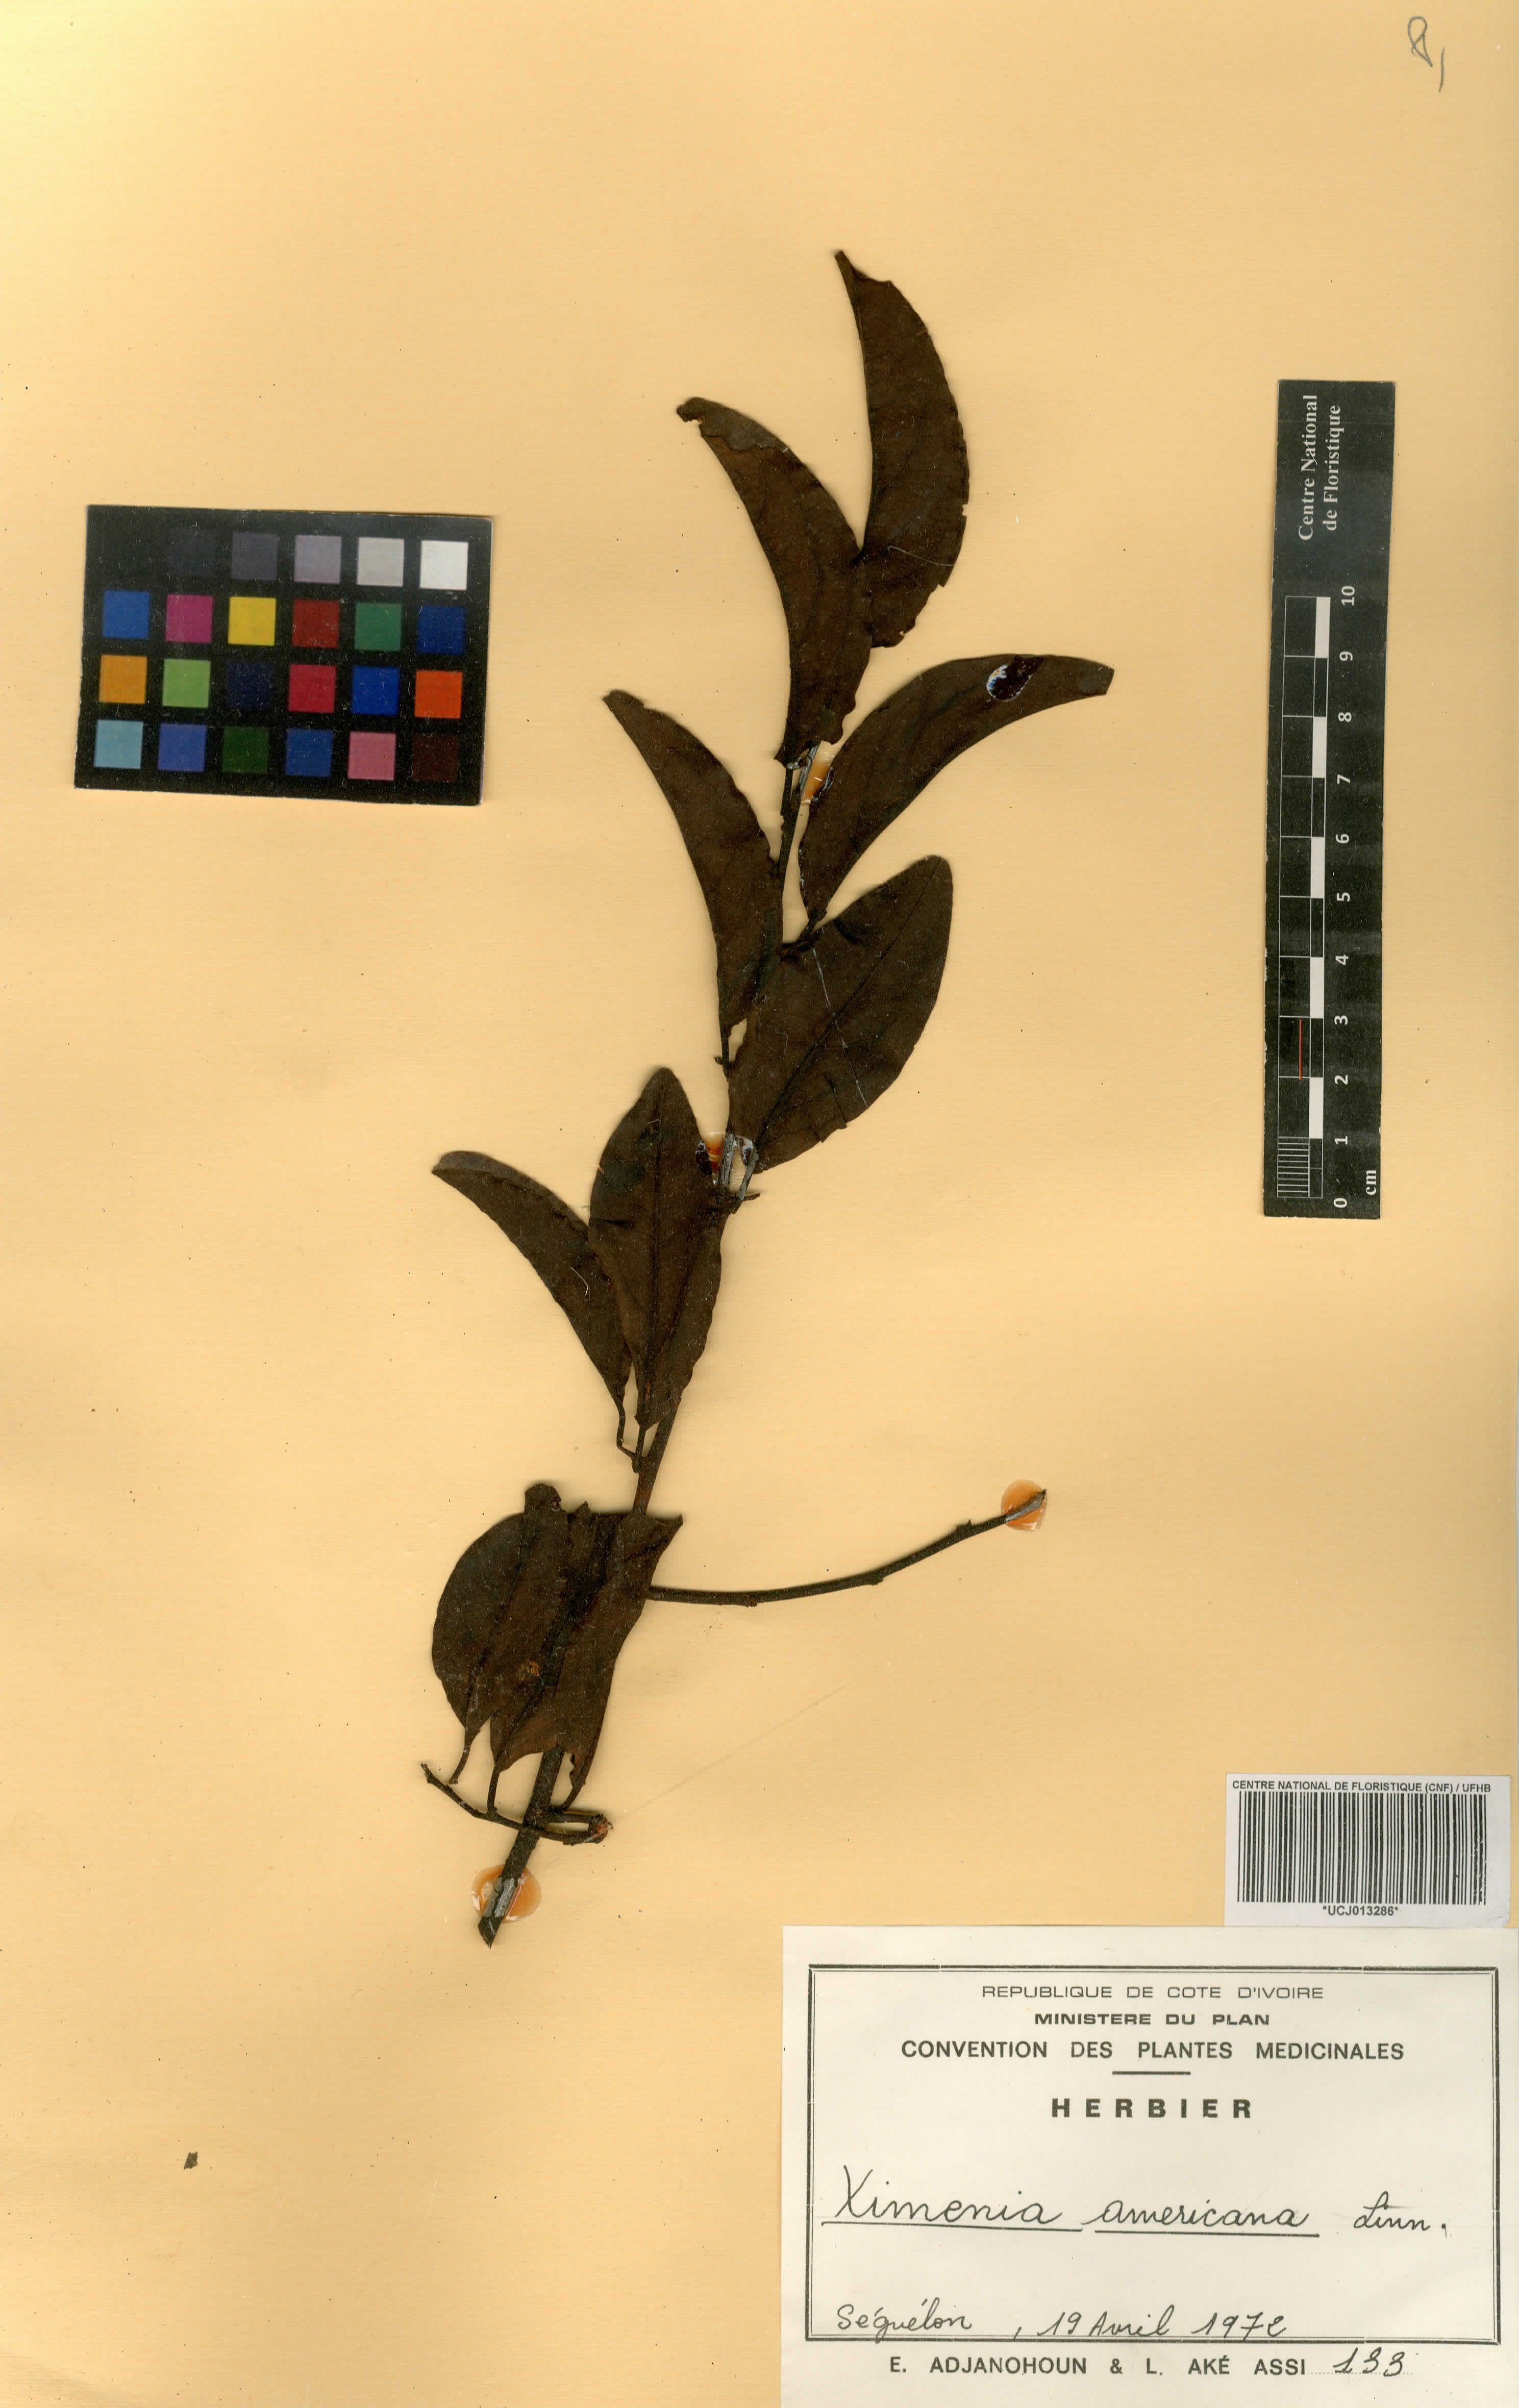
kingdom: Plantae
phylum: Tracheophyta
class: Magnoliopsida
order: Santalales
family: Ximeniaceae
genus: Ximenia
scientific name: Ximenia americana
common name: Tallowwood
